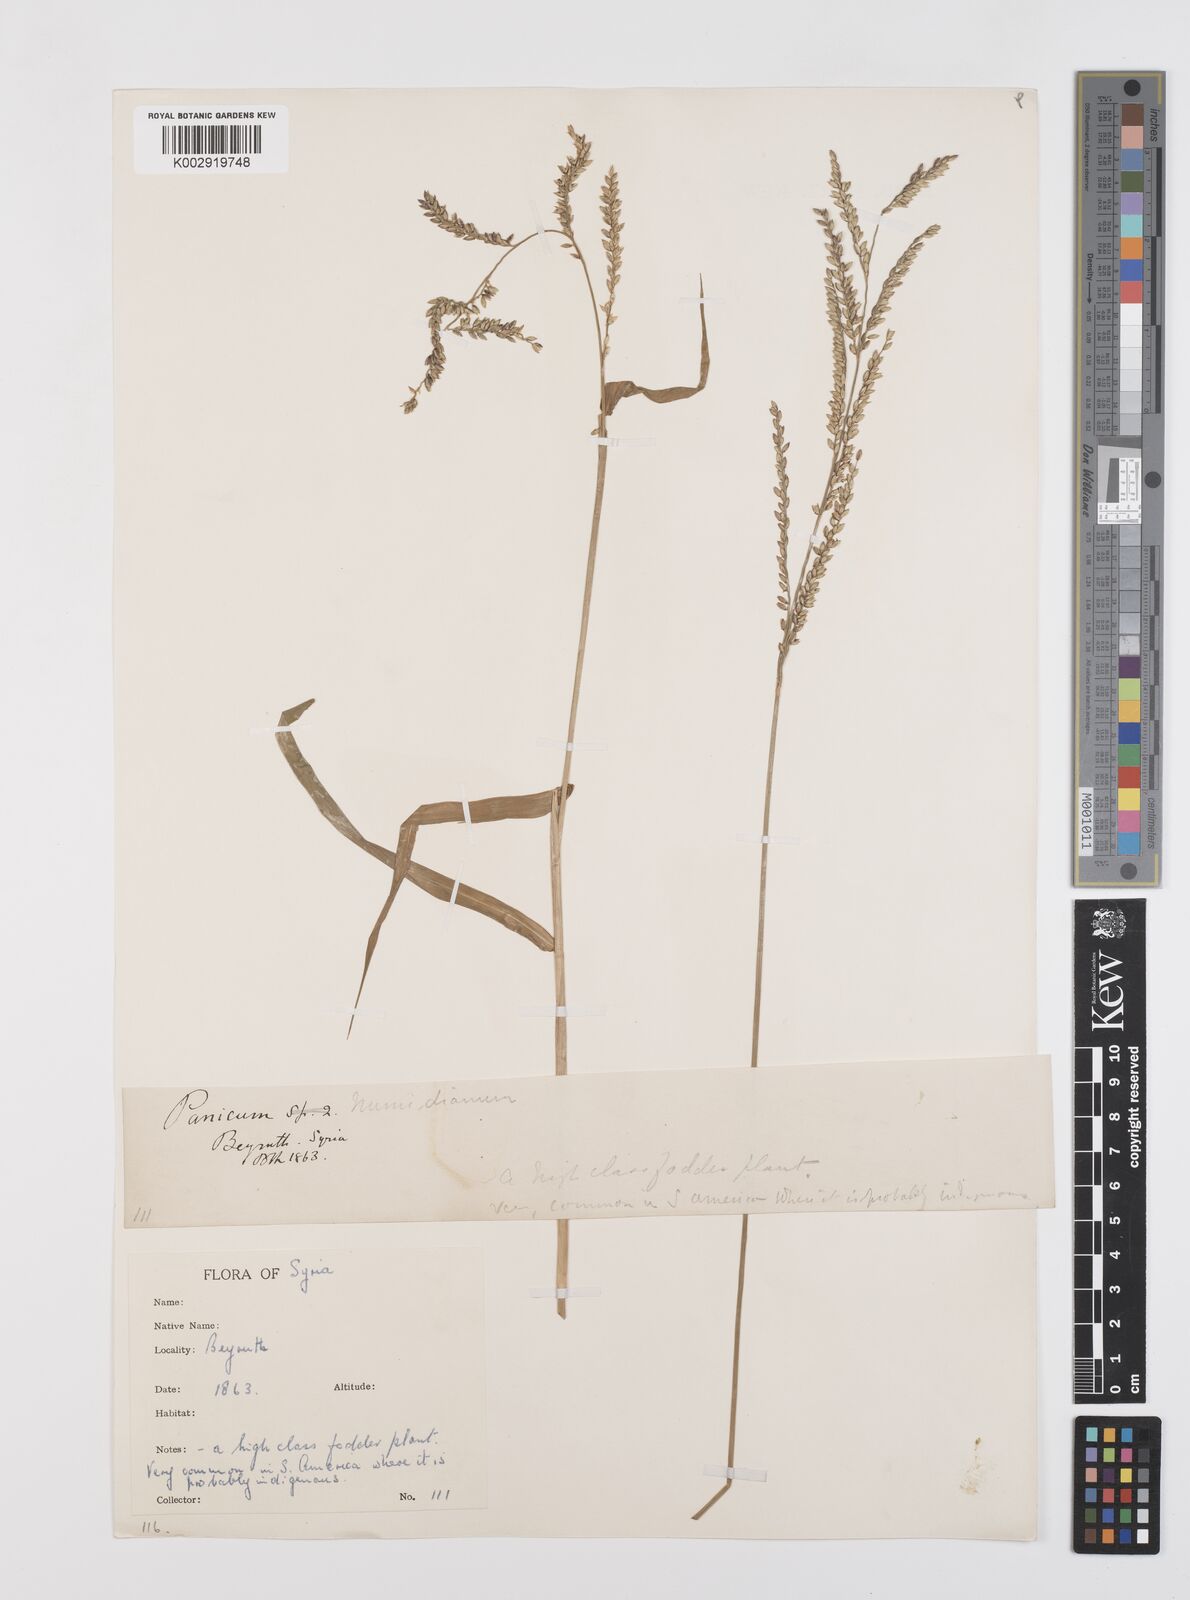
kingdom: Plantae
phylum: Tracheophyta
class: Liliopsida
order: Poales
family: Poaceae
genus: Urochloa
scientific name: Urochloa mutica
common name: Para grass
